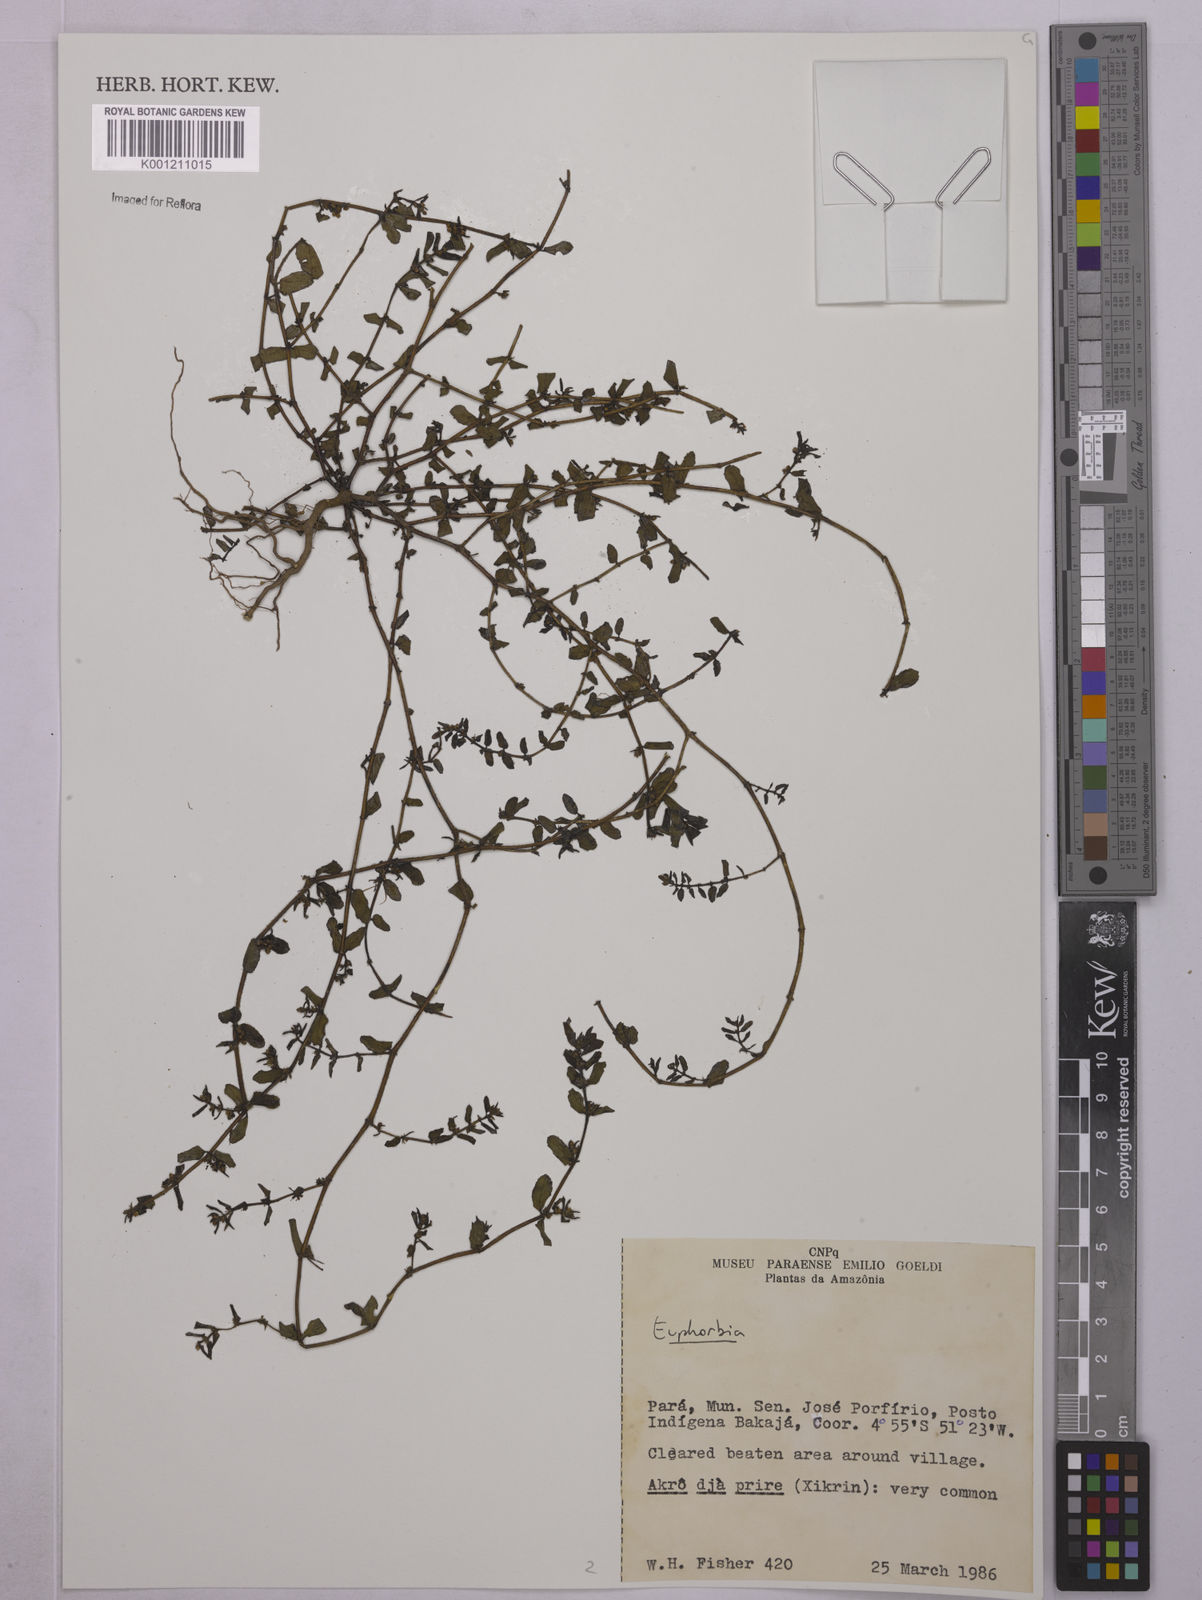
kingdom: Plantae
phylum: Tracheophyta
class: Magnoliopsida
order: Malpighiales
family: Euphorbiaceae
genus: Euphorbia
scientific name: Euphorbia
